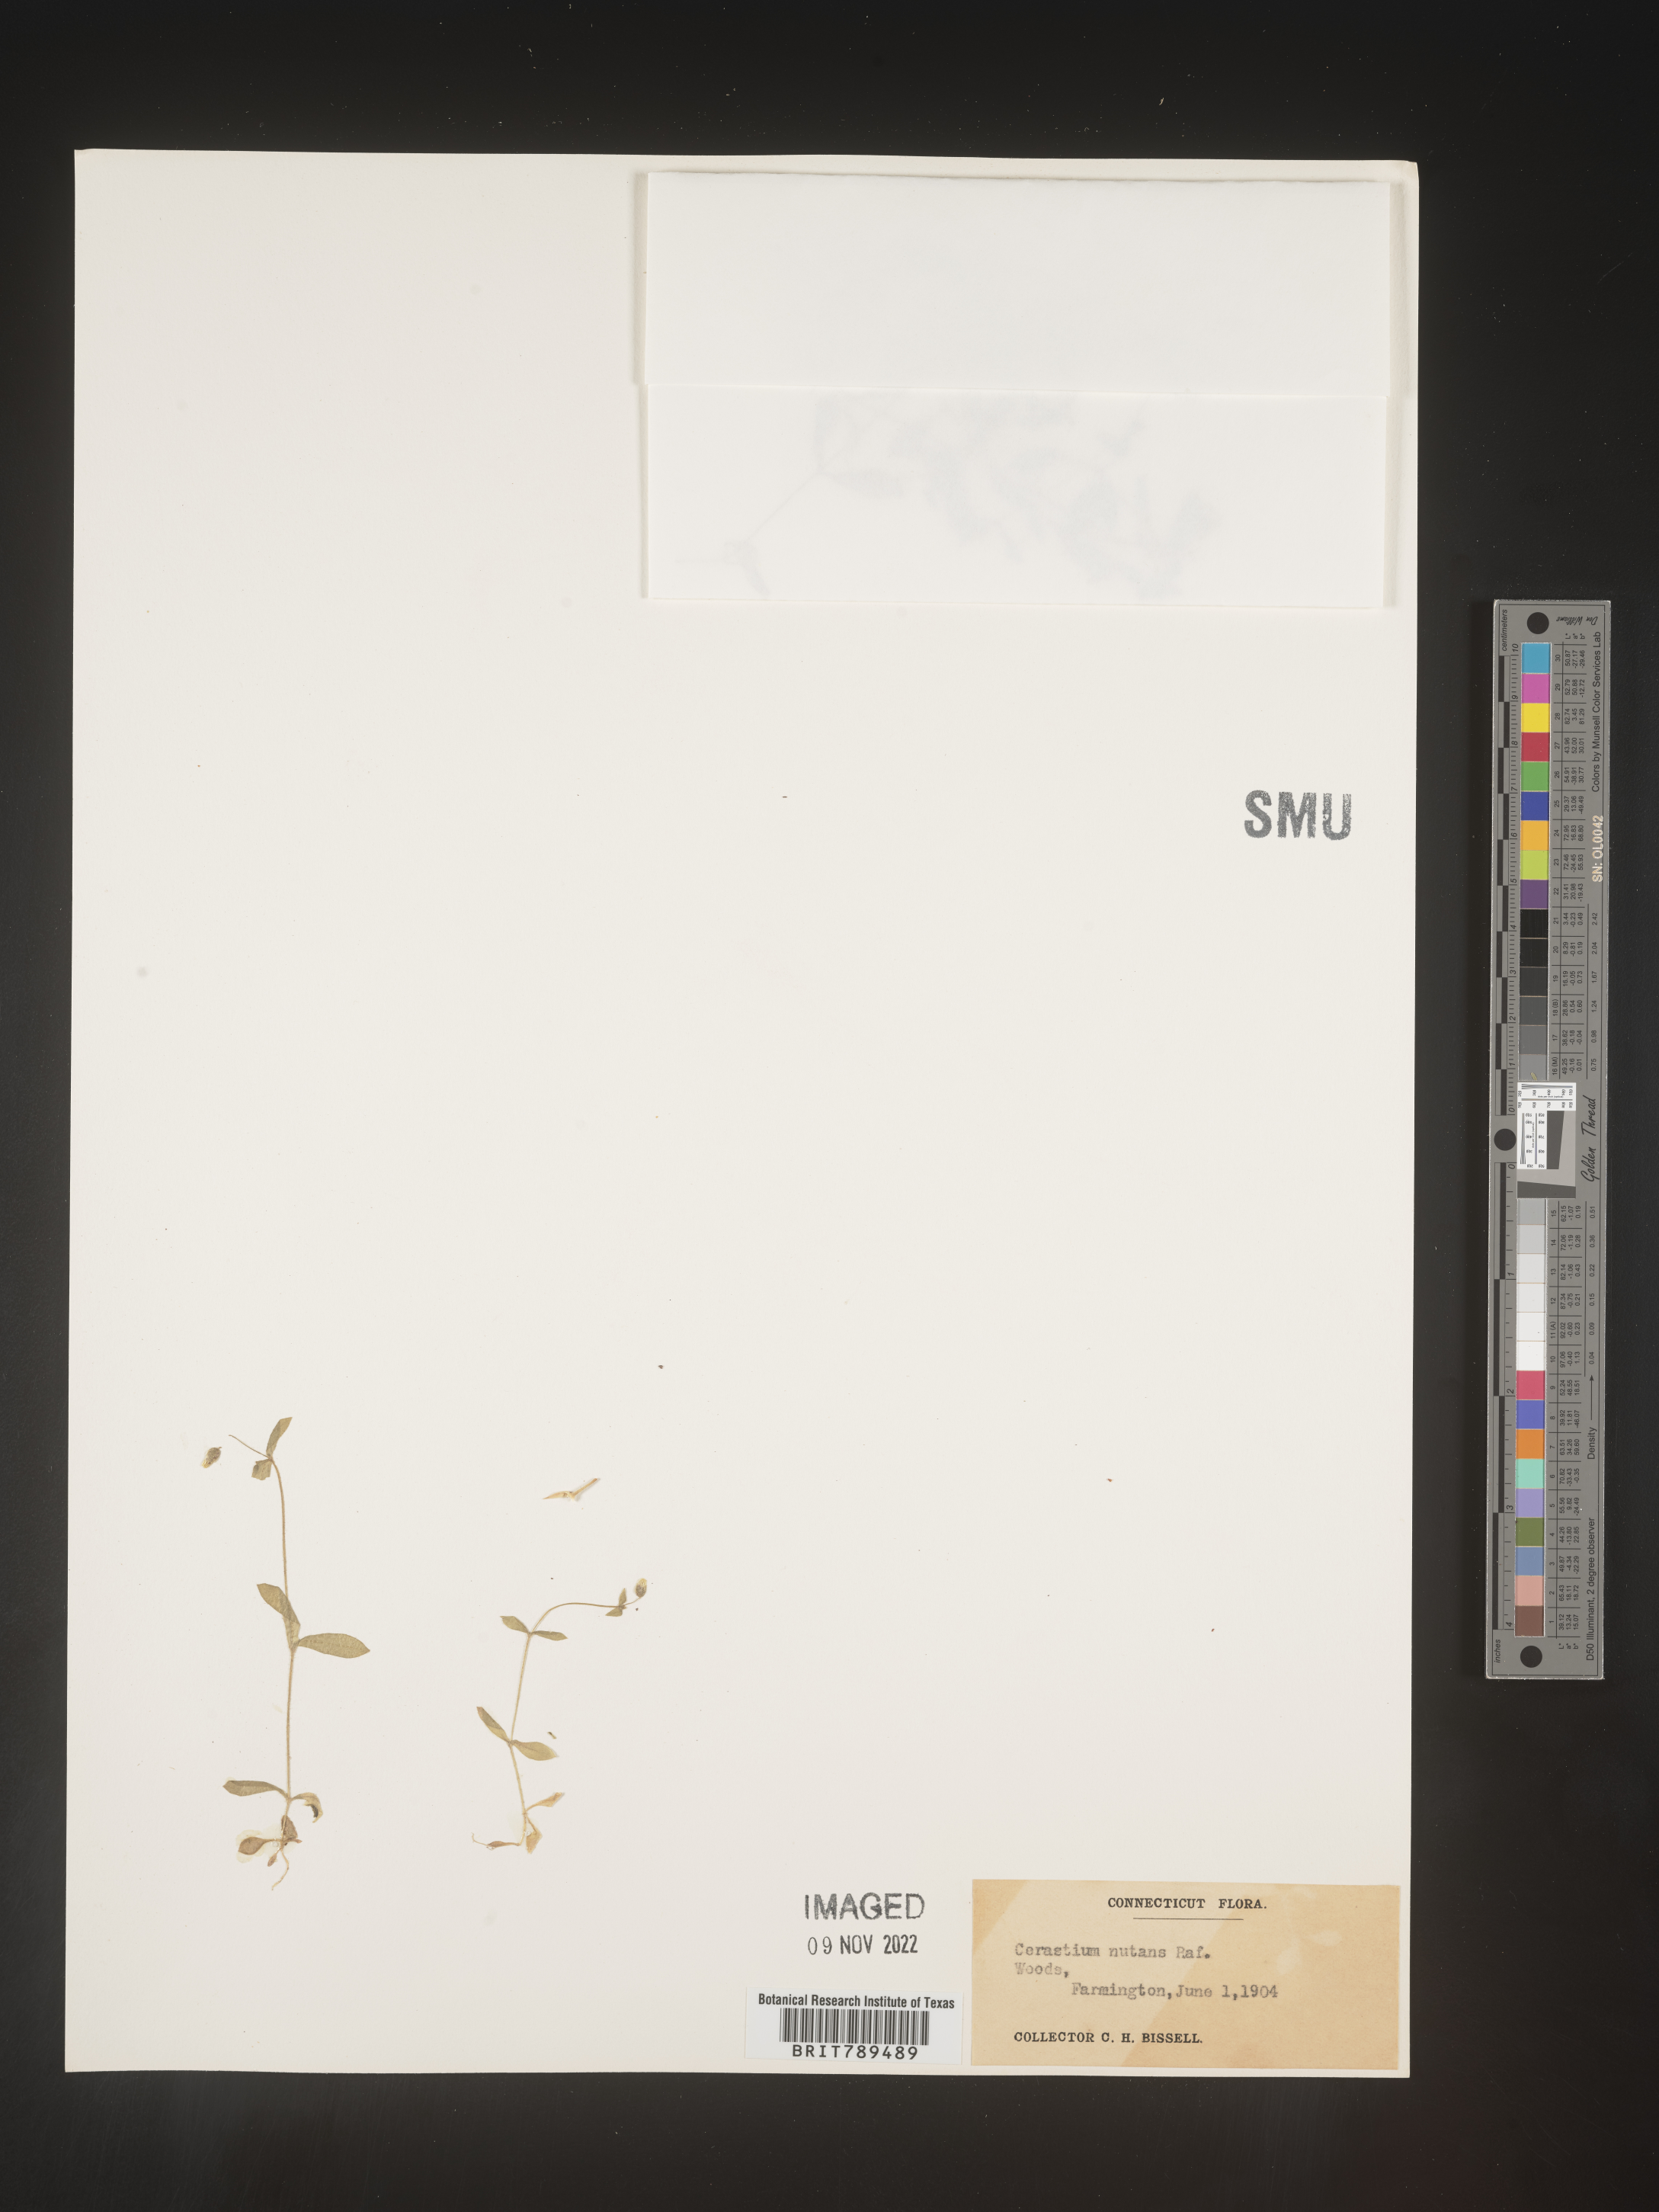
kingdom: Plantae
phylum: Tracheophyta
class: Magnoliopsida
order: Caryophyllales
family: Caryophyllaceae
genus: Arenaria
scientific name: Arenaria
